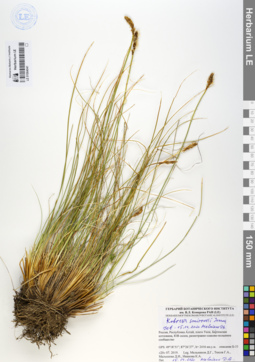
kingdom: Plantae
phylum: Tracheophyta
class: Liliopsida
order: Poales
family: Cyperaceae
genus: Carex
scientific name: Carex borealipolaris
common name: Siberian bog sedge
